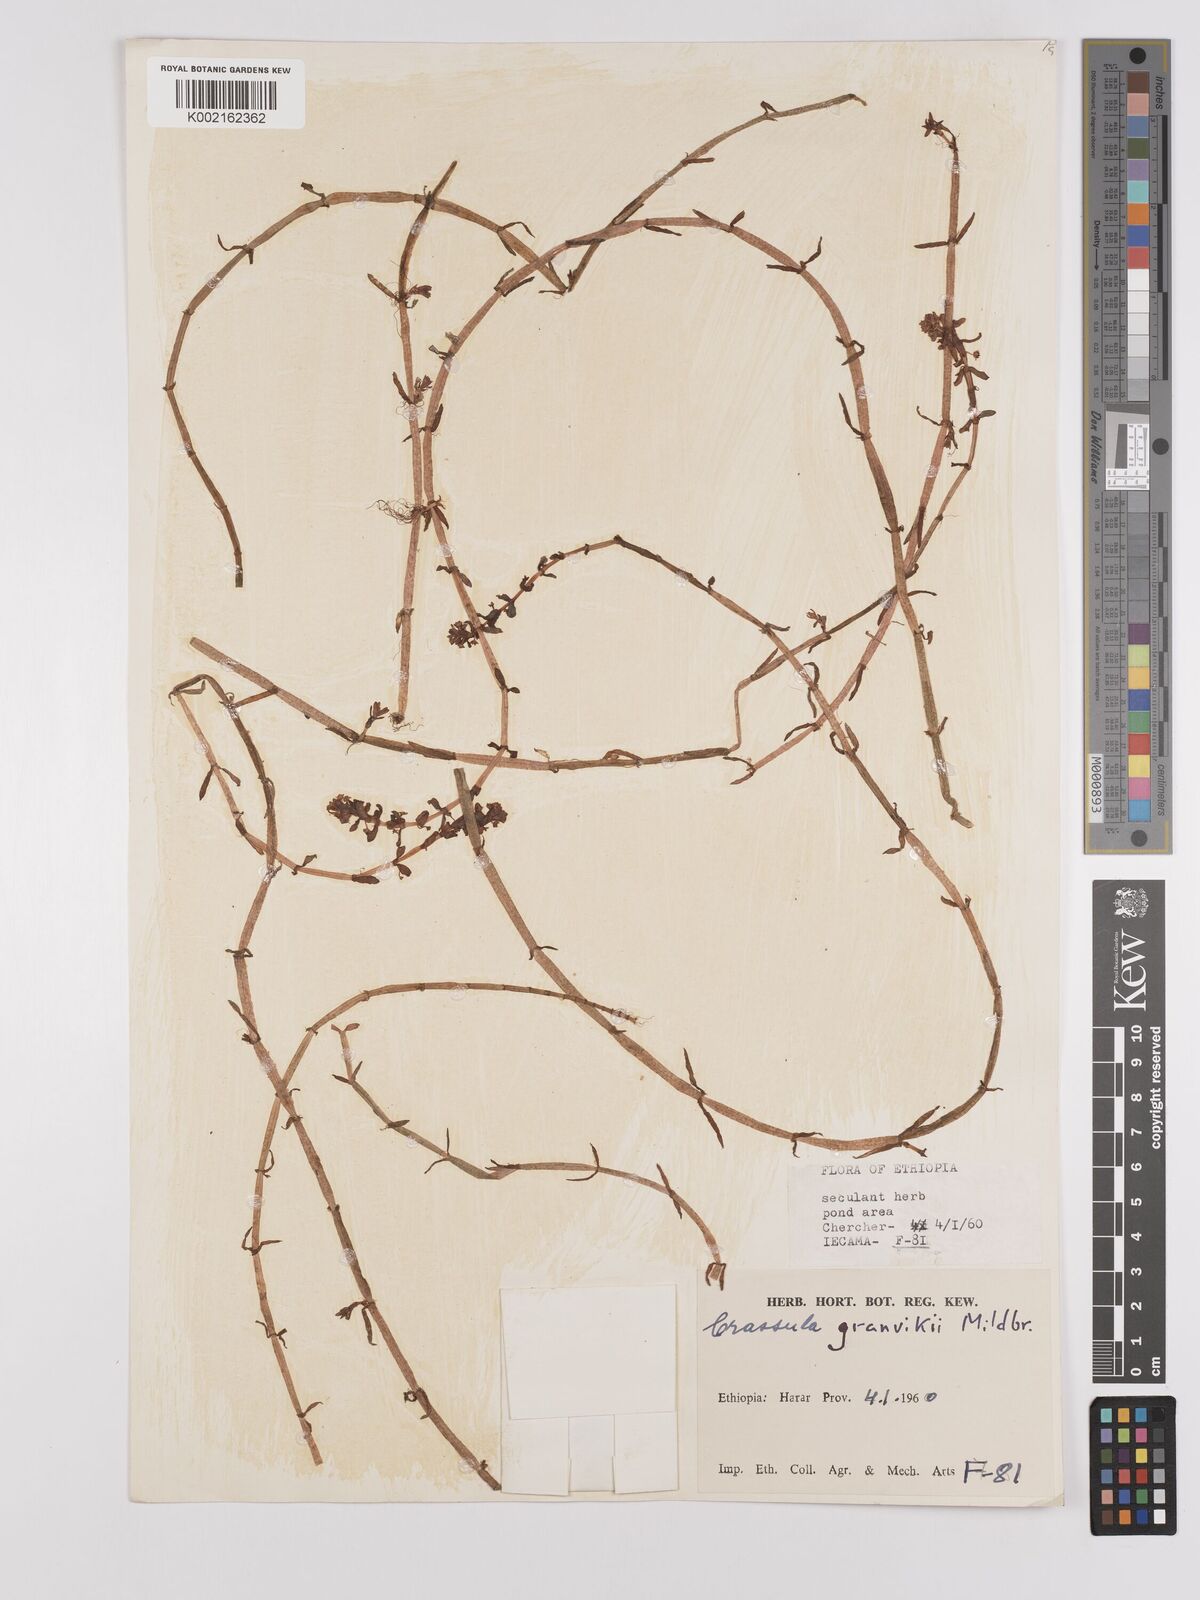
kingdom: Plantae
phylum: Tracheophyta
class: Magnoliopsida
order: Saxifragales
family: Crassulaceae
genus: Crassula
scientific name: Crassula granvikii
